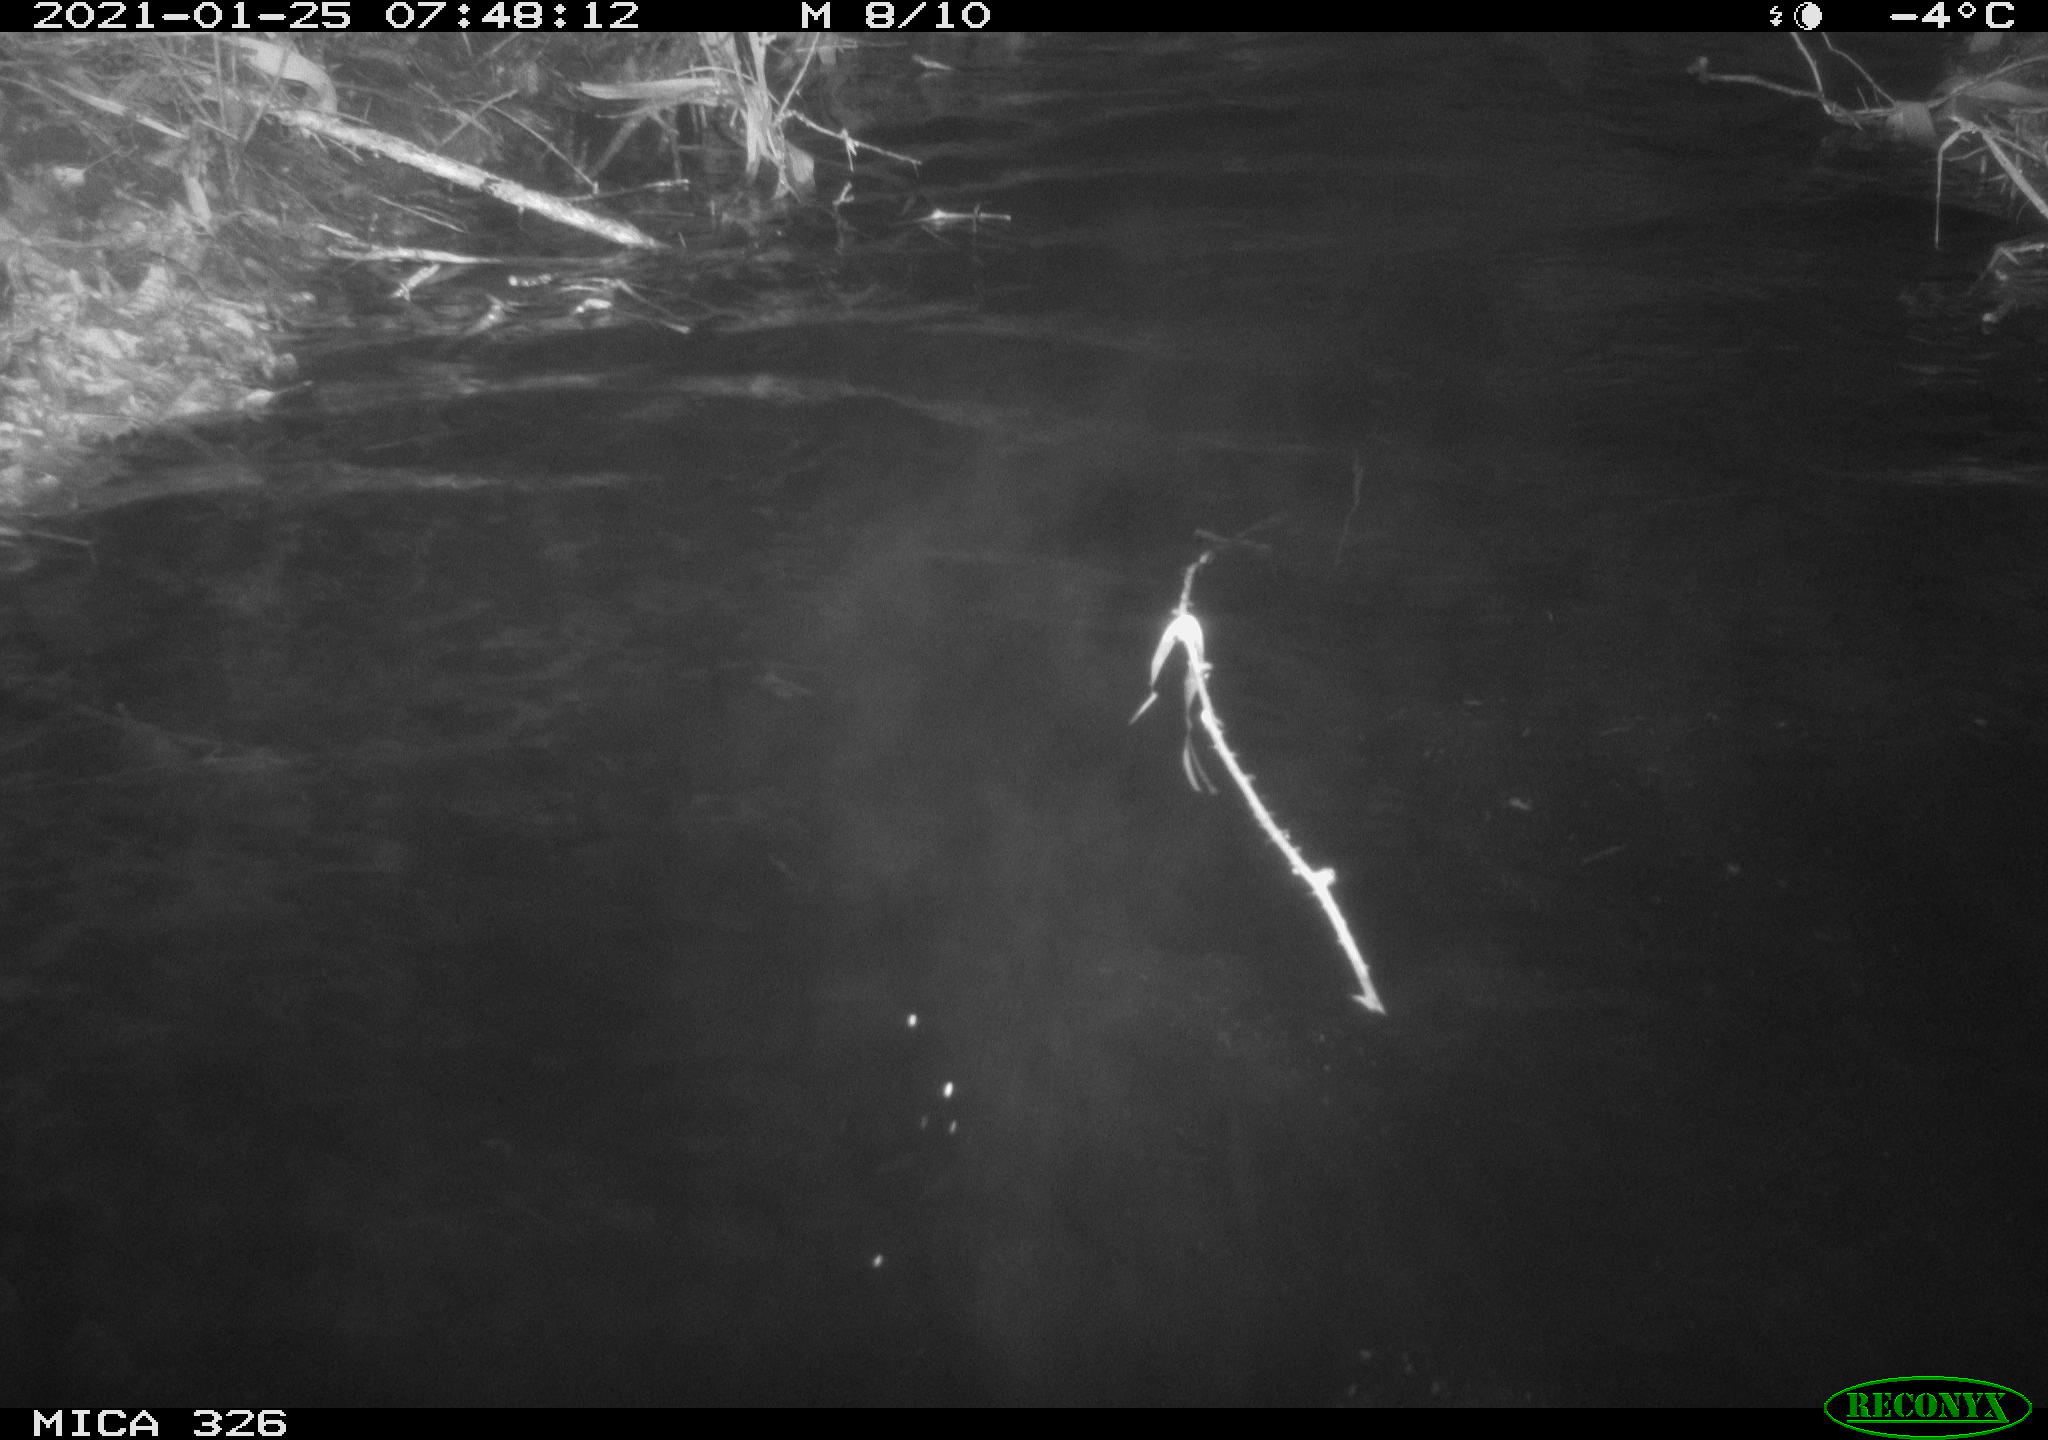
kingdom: Animalia
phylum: Chordata
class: Mammalia
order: Carnivora
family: Mustelidae
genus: Lutra
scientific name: Lutra lutra
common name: European otter
